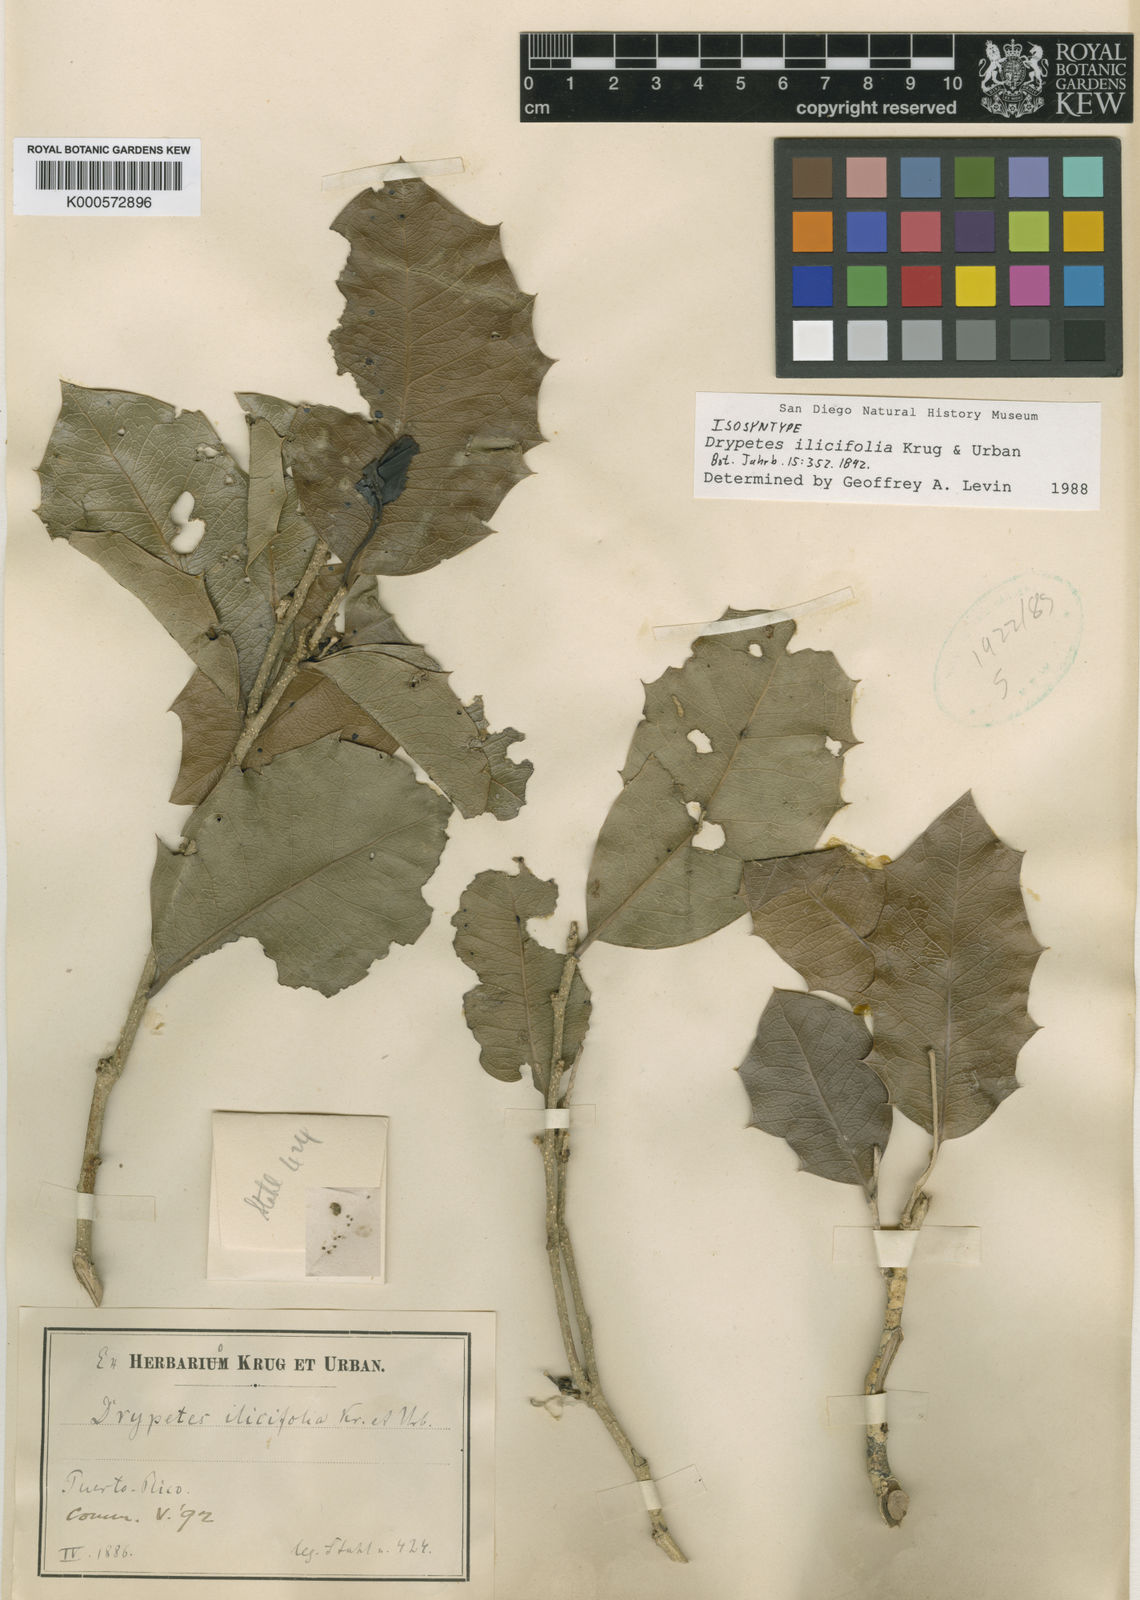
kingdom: Plantae
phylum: Tracheophyta
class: Magnoliopsida
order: Malpighiales
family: Ochnaceae
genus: Ouratea
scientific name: Ouratea ilicifolia
